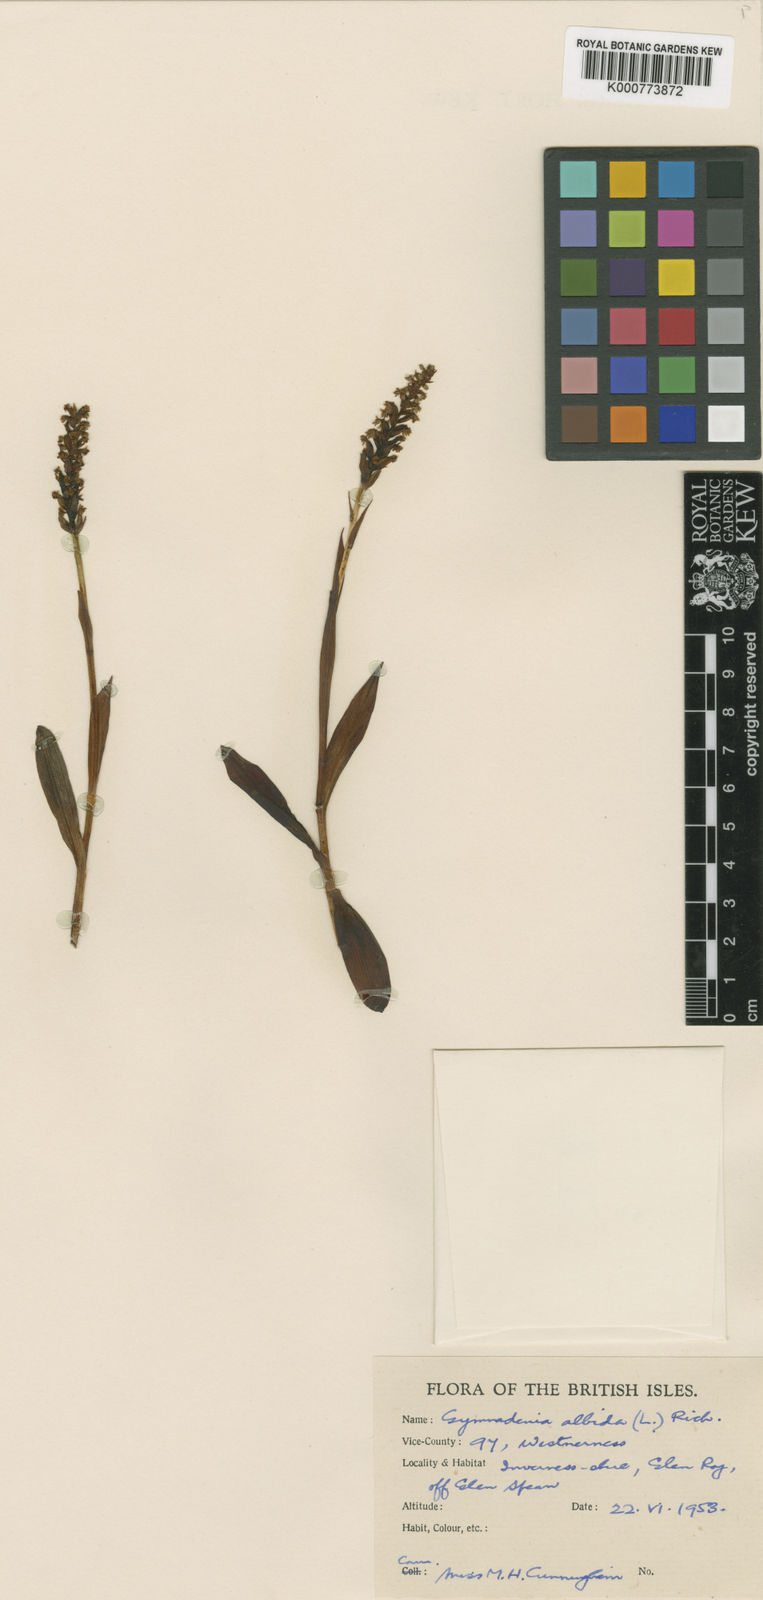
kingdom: Plantae
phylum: Tracheophyta
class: Liliopsida
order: Asparagales
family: Orchidaceae
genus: Pseudorchis
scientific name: Pseudorchis
